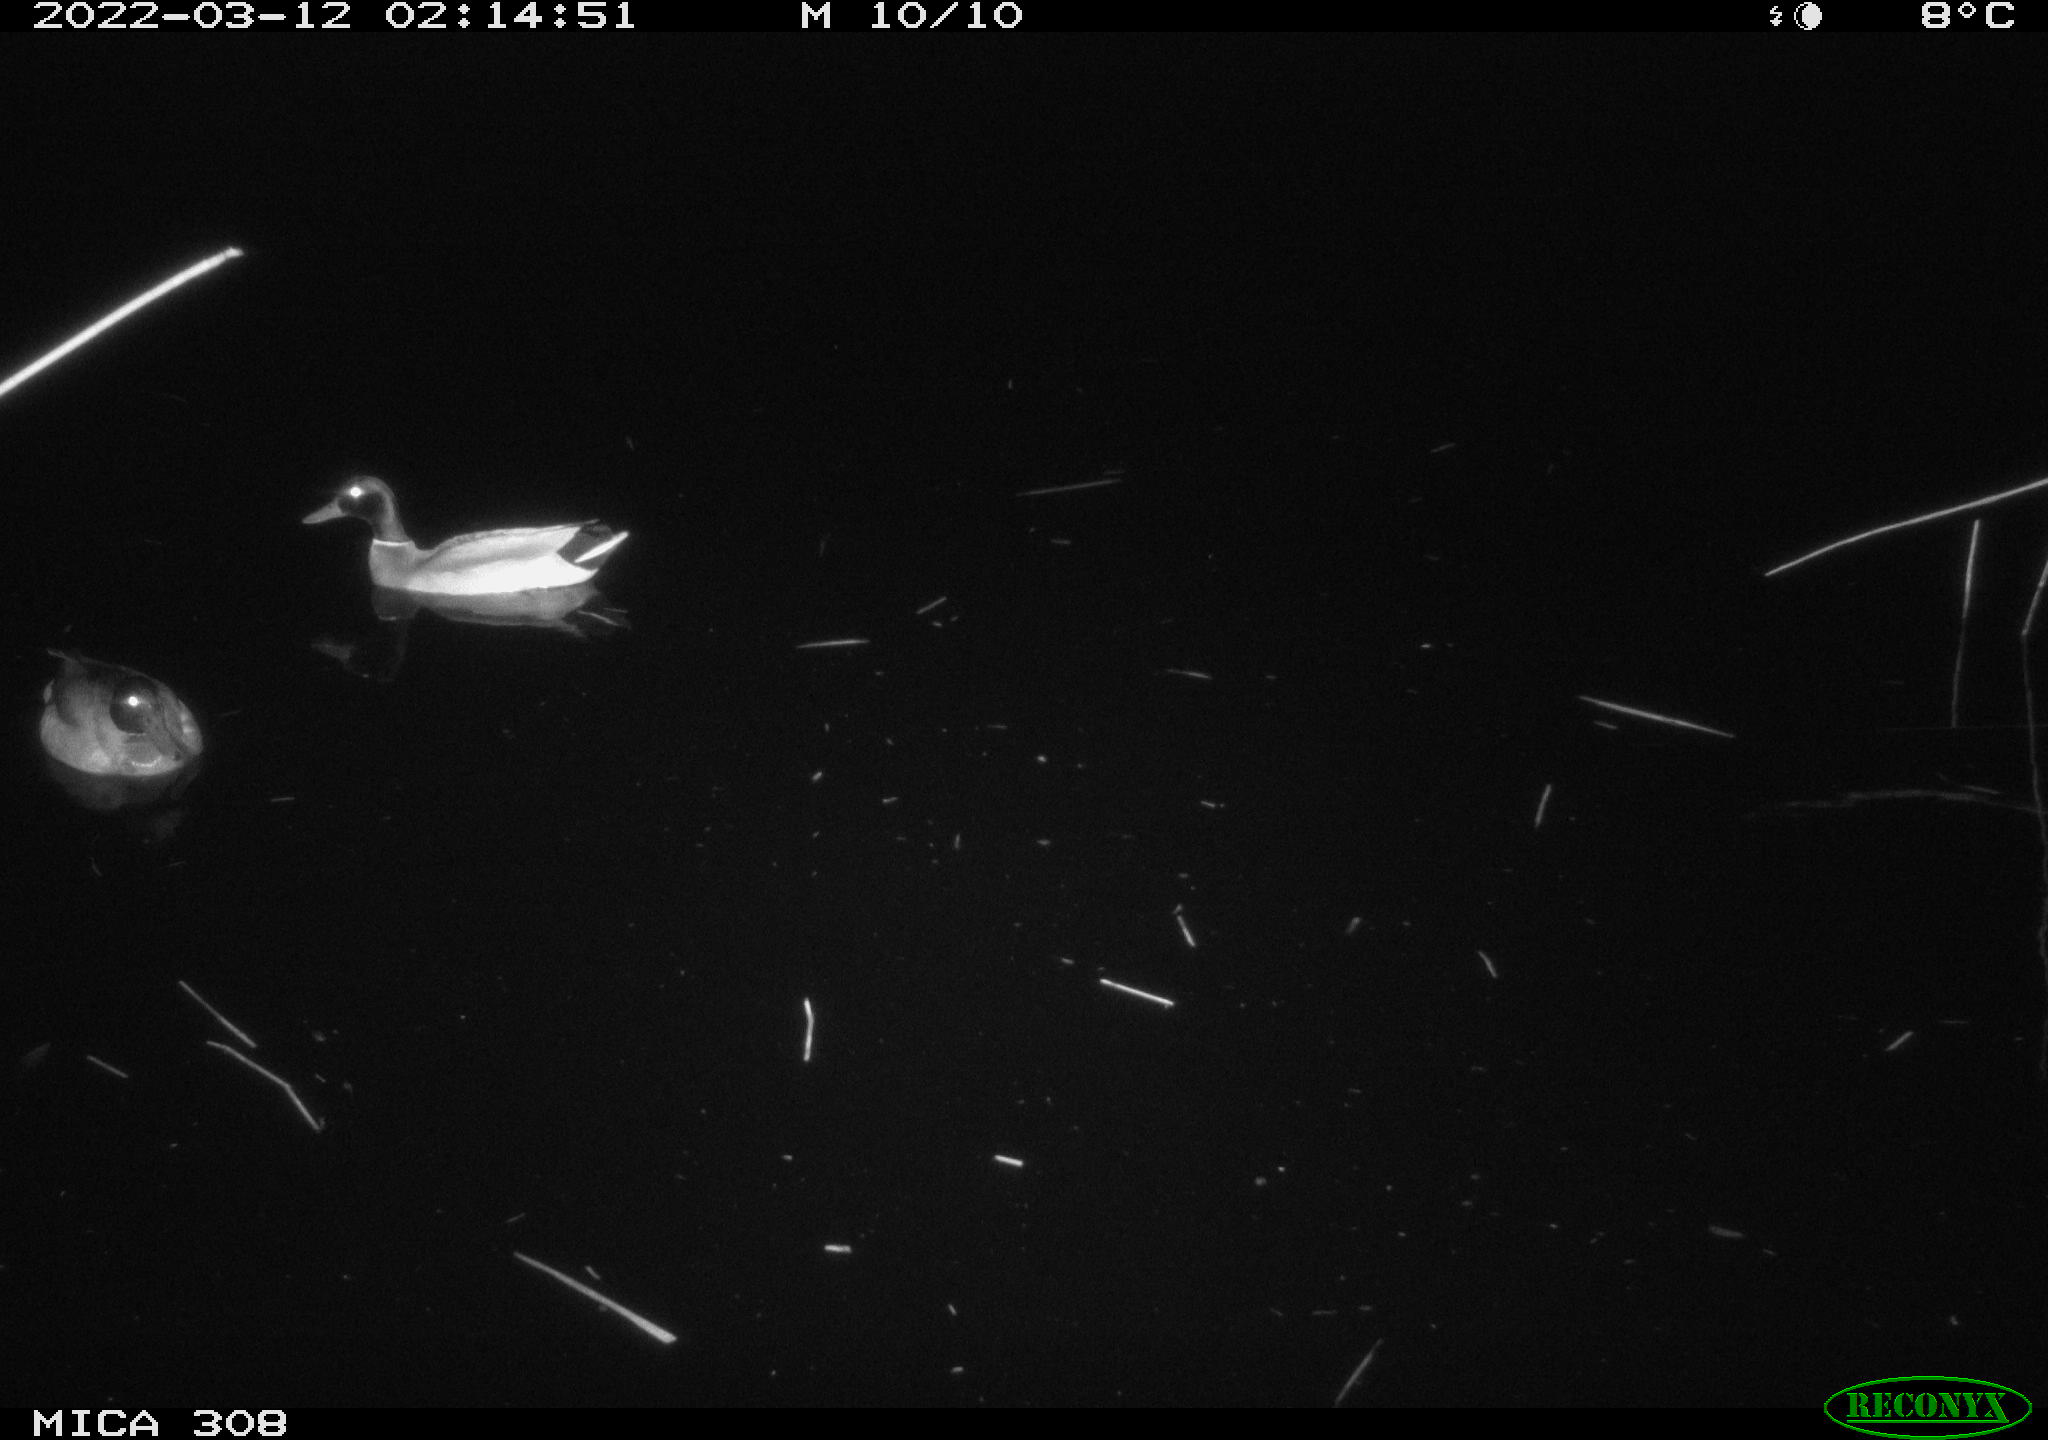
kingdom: Animalia
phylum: Chordata
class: Aves
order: Anseriformes
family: Anatidae
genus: Anas
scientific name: Anas platyrhynchos
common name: Mallard
